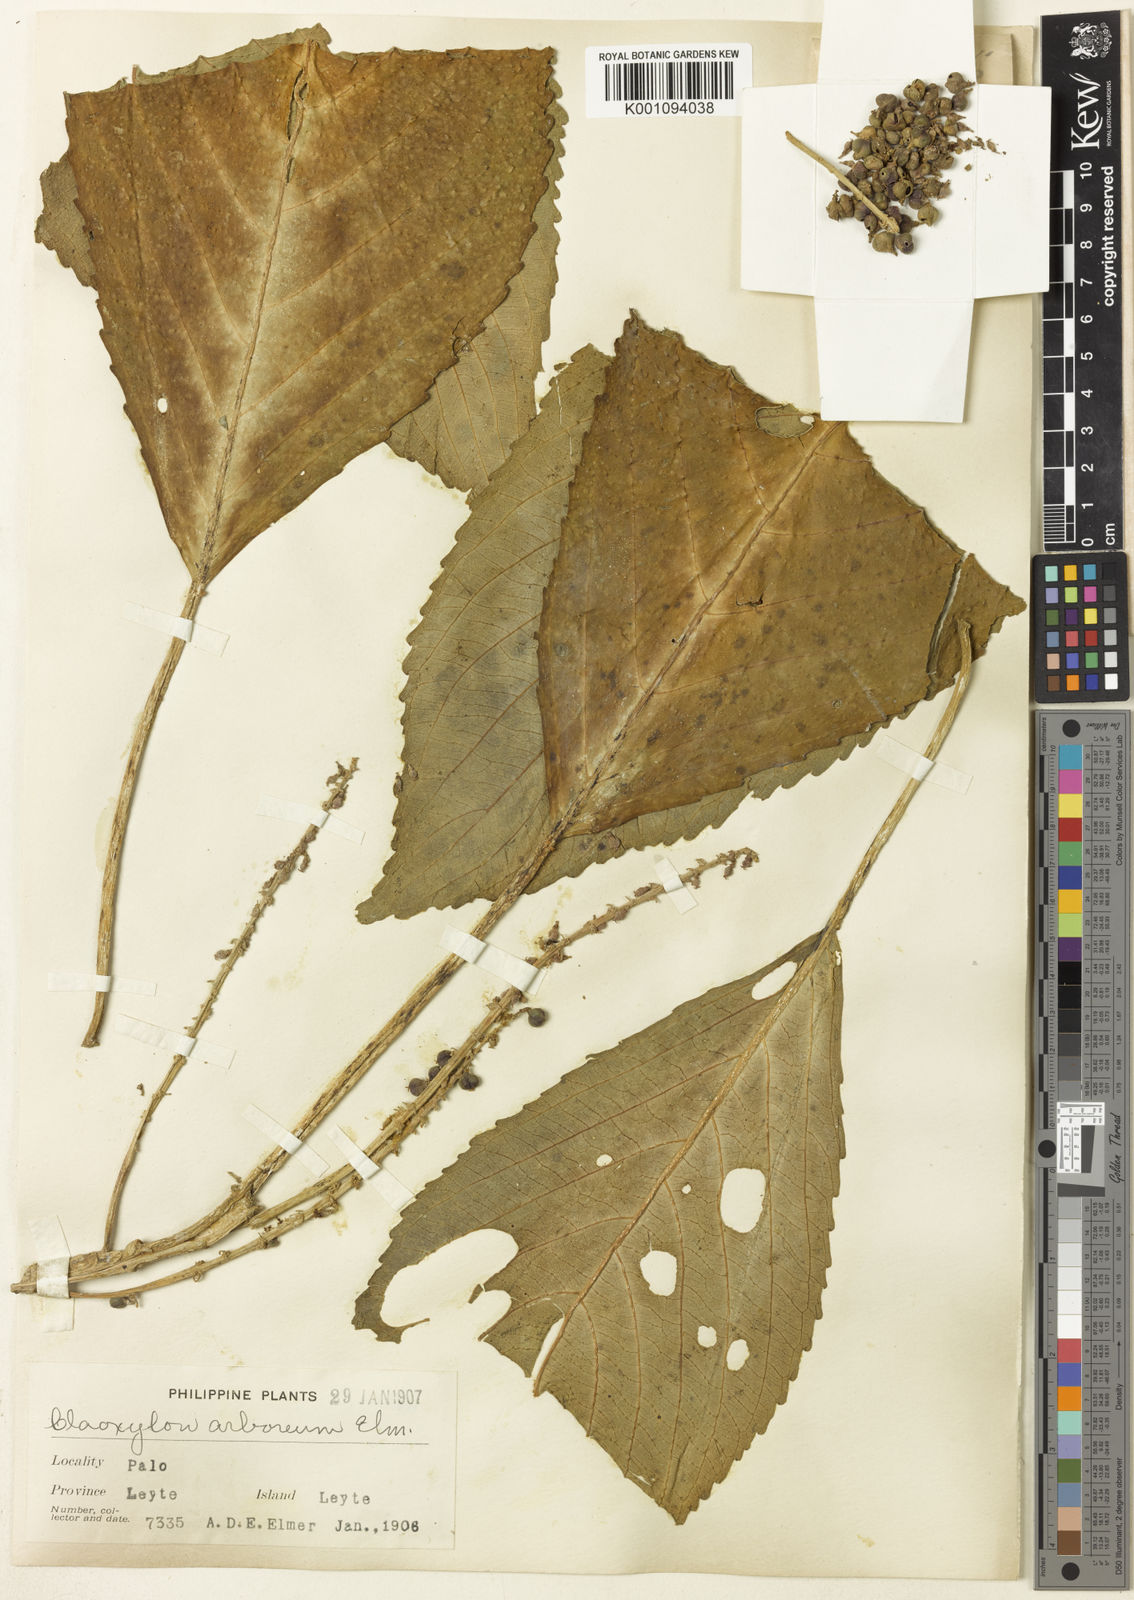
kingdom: Plantae
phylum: Tracheophyta
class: Magnoliopsida
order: Malpighiales
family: Euphorbiaceae
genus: Claoxylon
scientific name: Claoxylon arboreum
